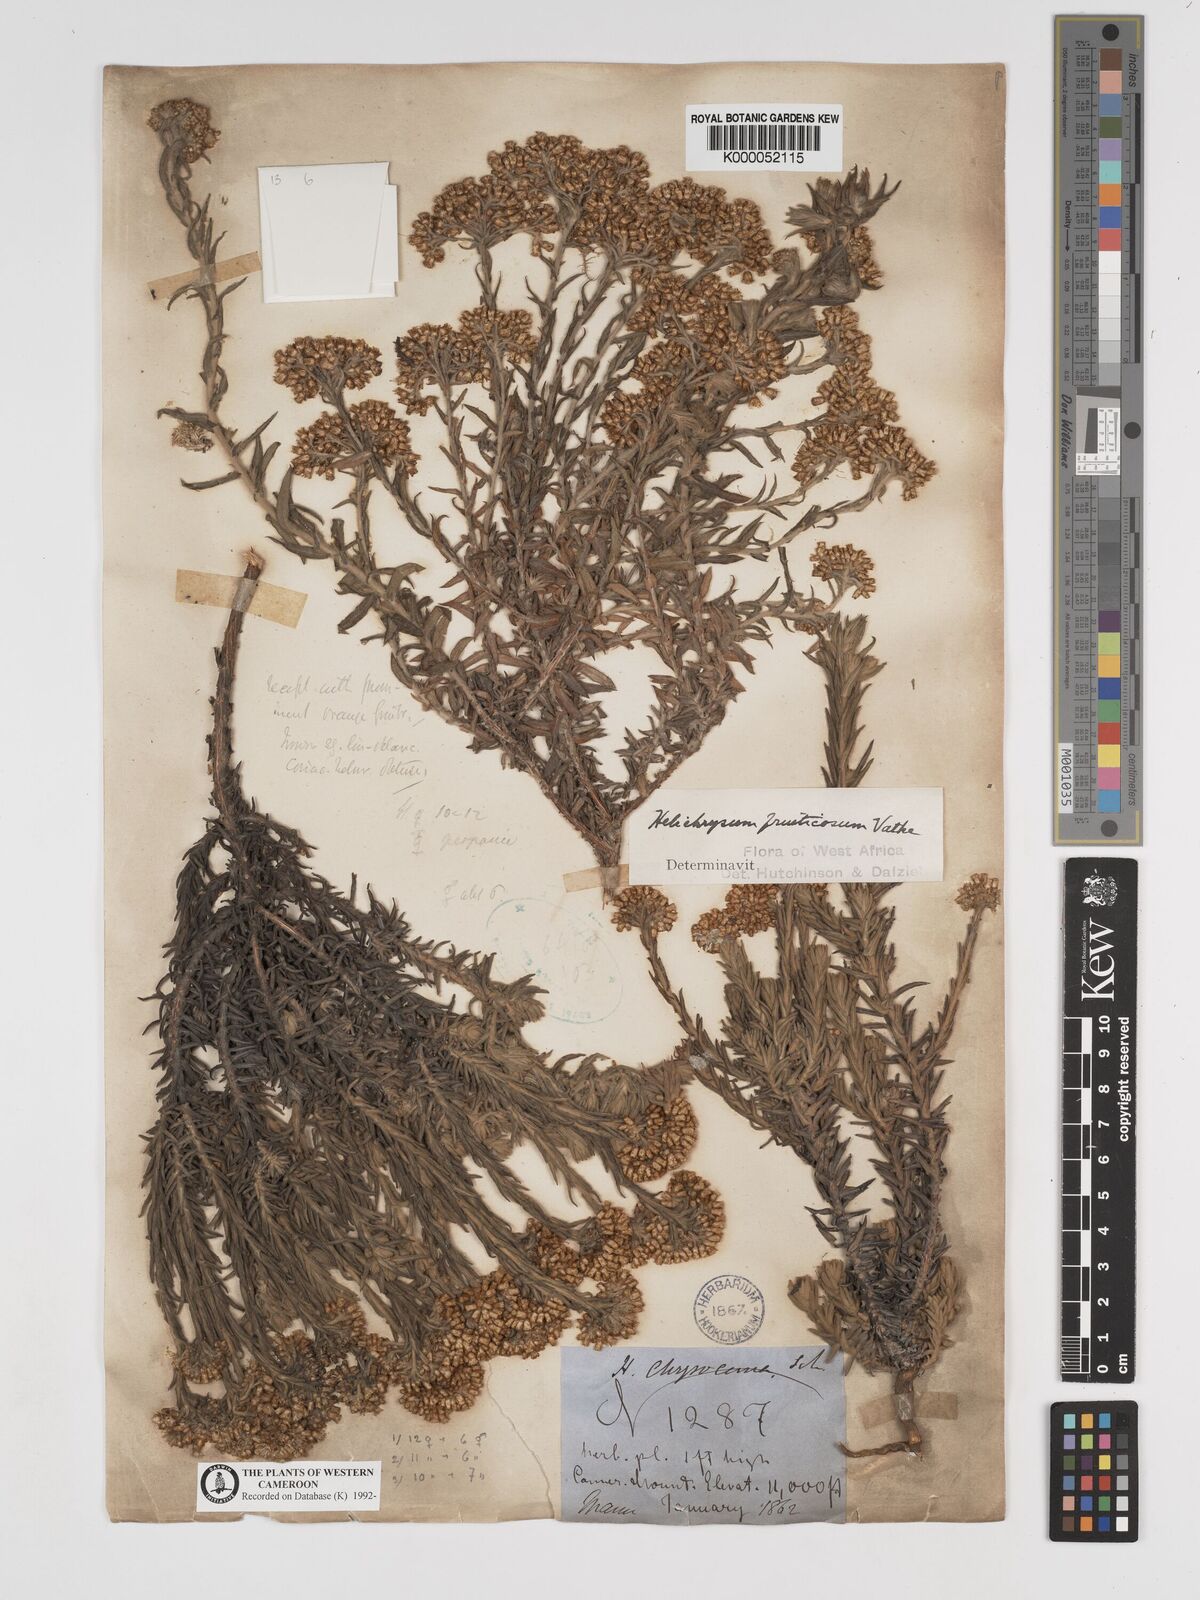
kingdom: Plantae
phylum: Tracheophyta
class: Magnoliopsida
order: Asterales
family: Asteraceae
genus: Helichrysum
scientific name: Helichrysum forskahlii
